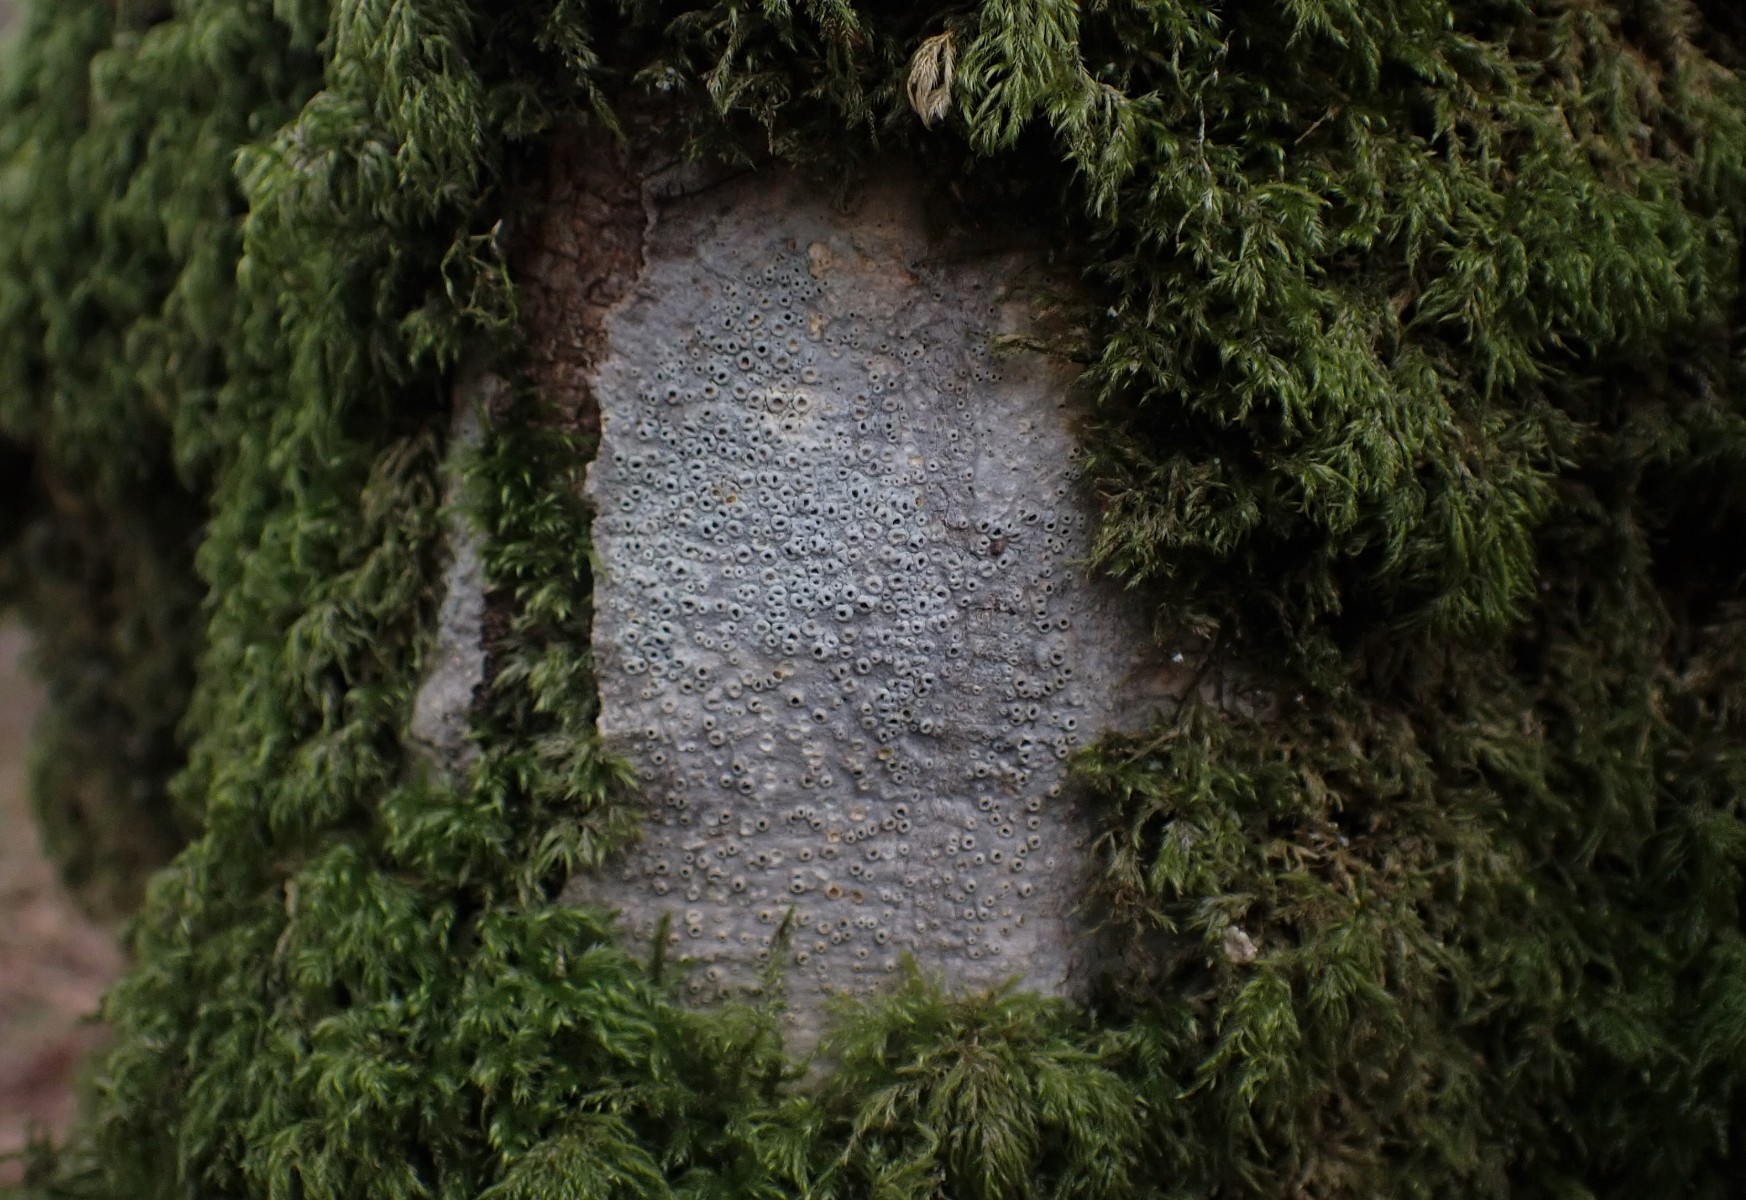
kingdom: Fungi
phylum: Ascomycota
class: Lecanoromycetes
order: Ostropales
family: Graphidaceae
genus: Thelotrema
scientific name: Thelotrema lepadinum
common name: almindelig slørkantlav
